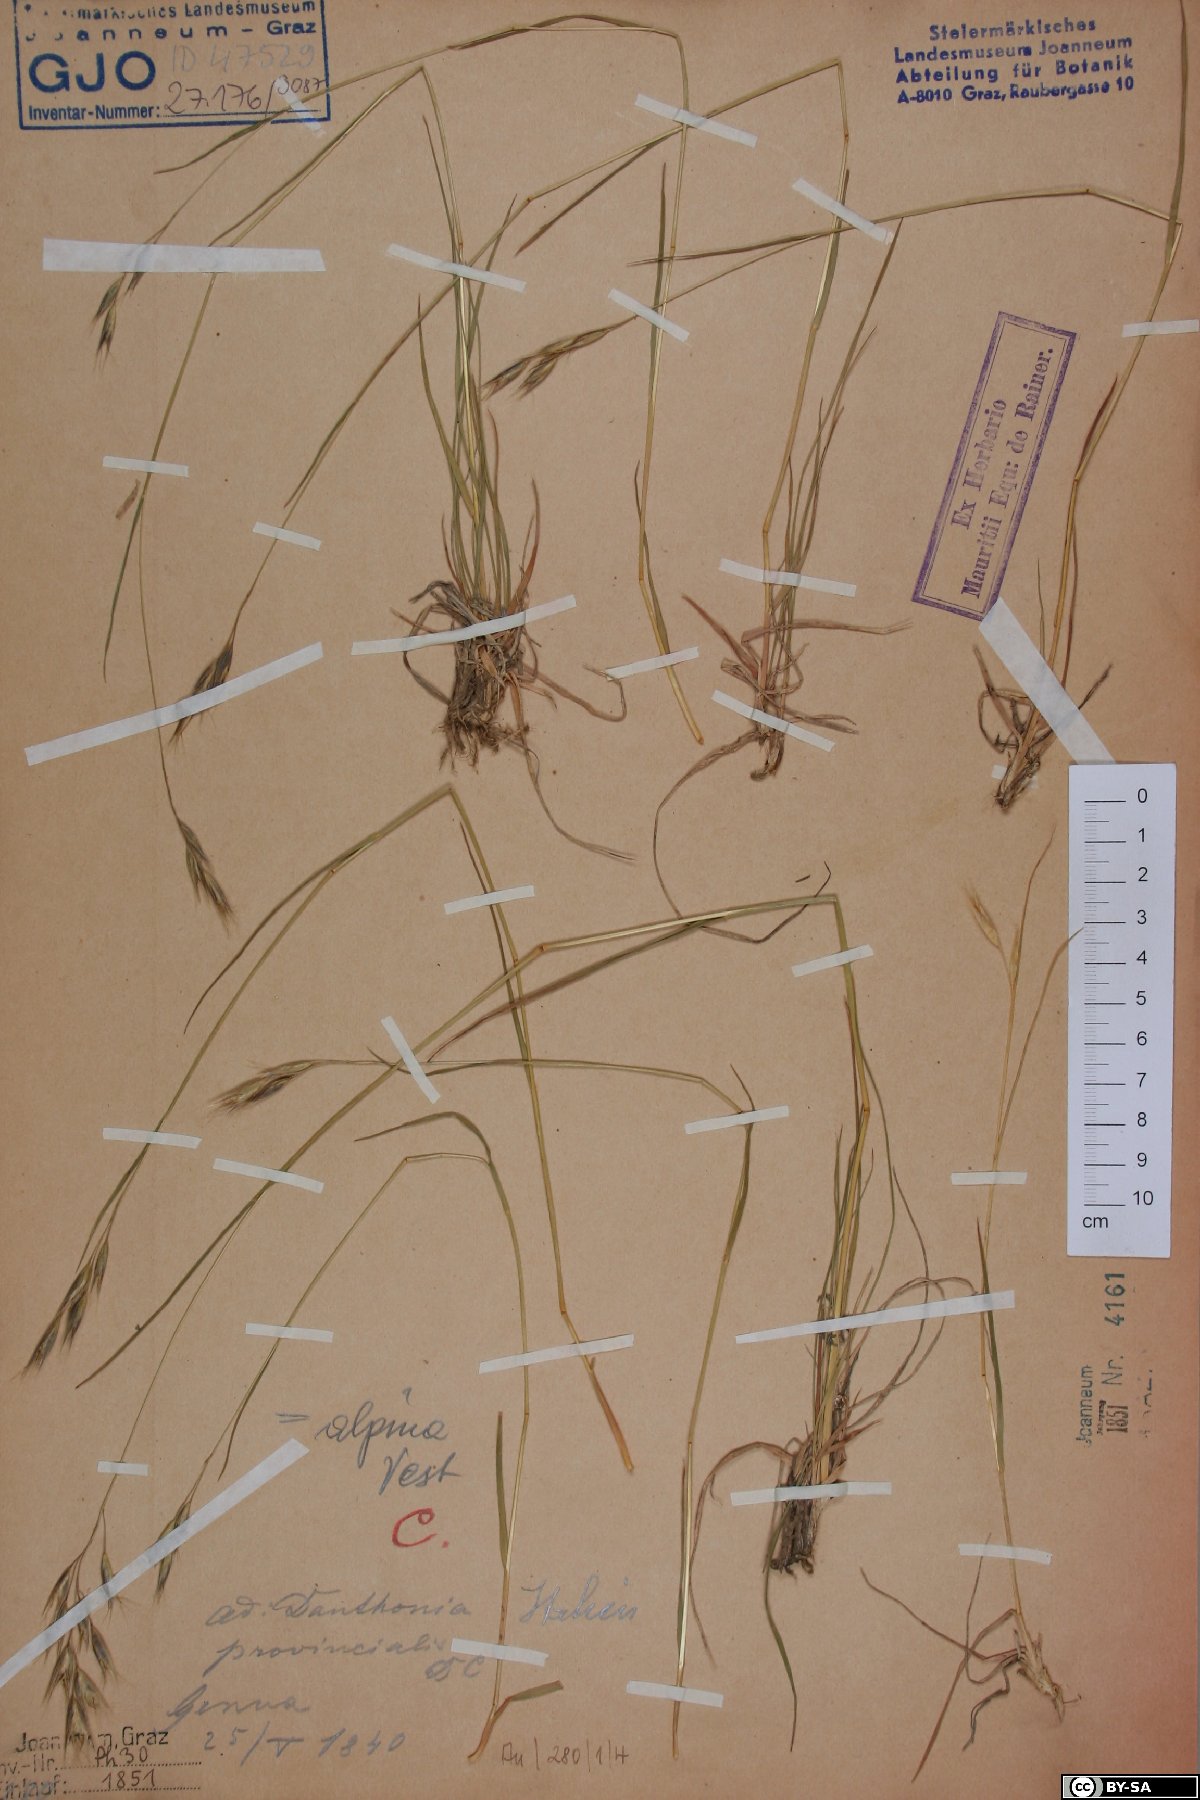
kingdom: Plantae
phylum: Tracheophyta
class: Liliopsida
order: Poales
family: Poaceae
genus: Danthonia
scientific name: Danthonia alpina
